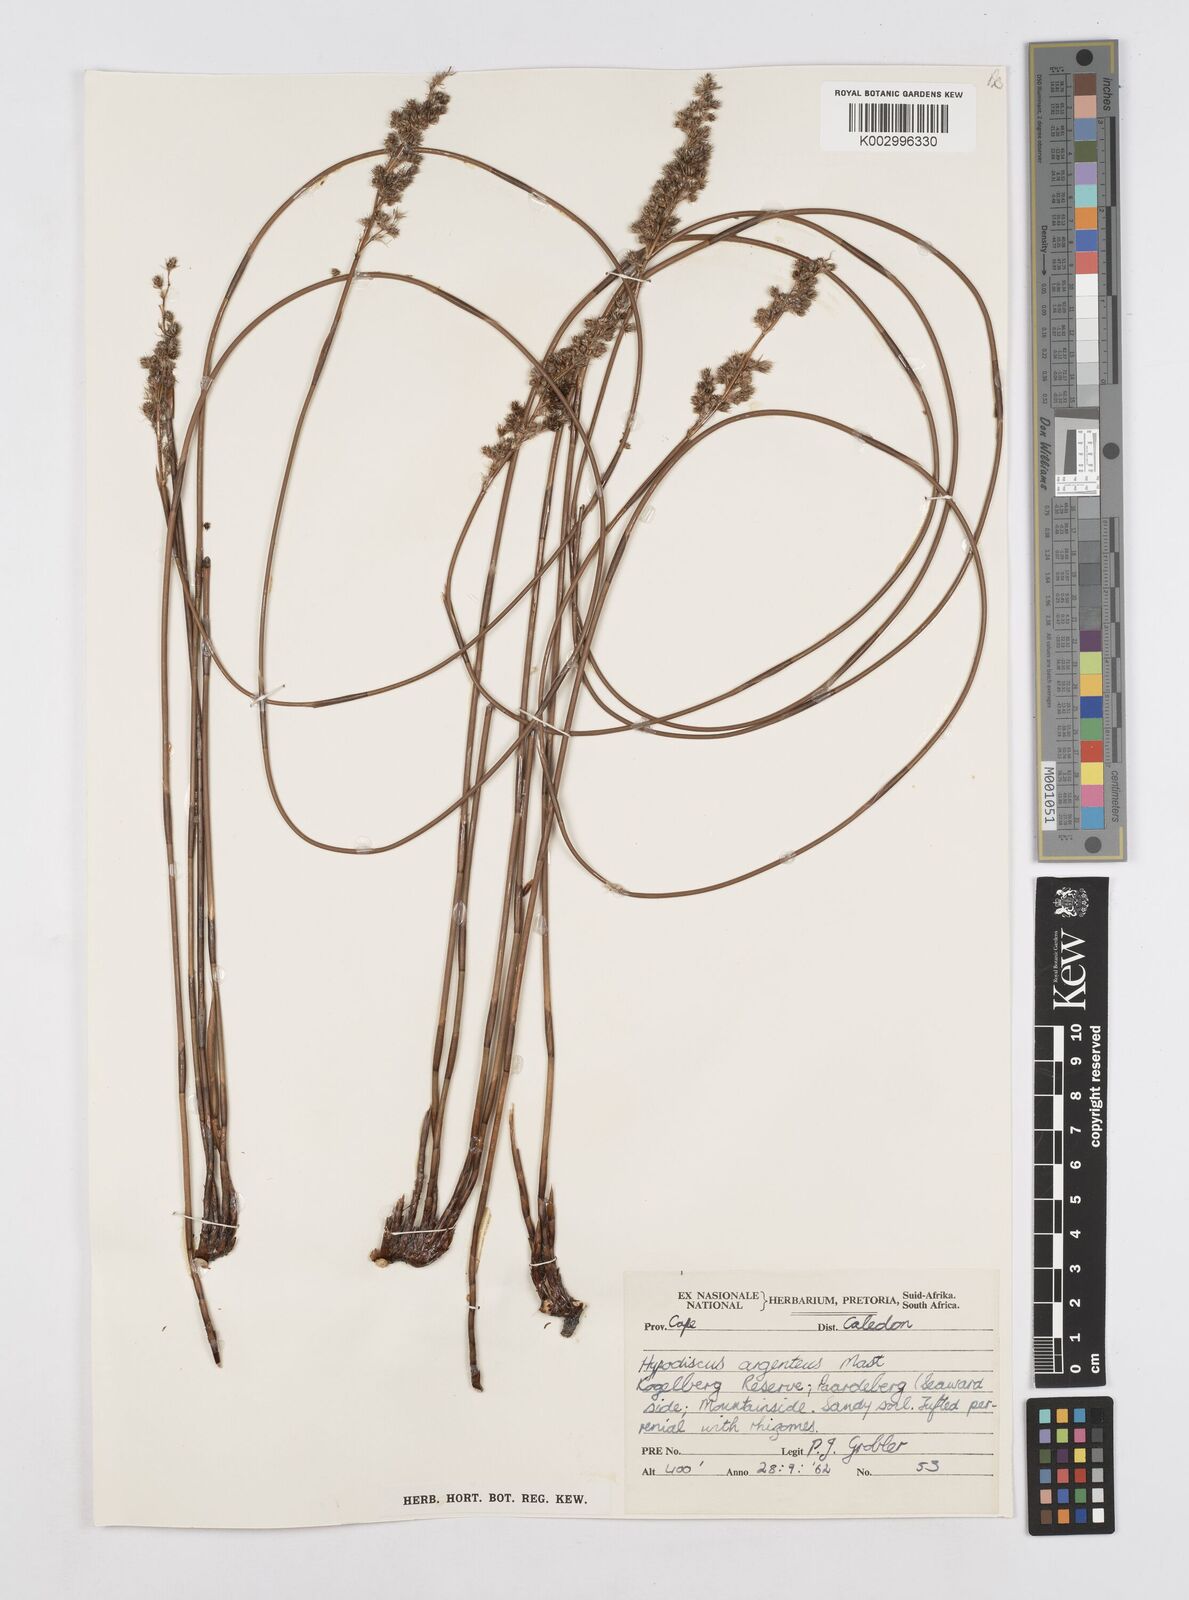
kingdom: Plantae
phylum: Tracheophyta
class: Liliopsida
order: Poales
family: Restionaceae
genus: Hypodiscus
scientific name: Hypodiscus argenteus
